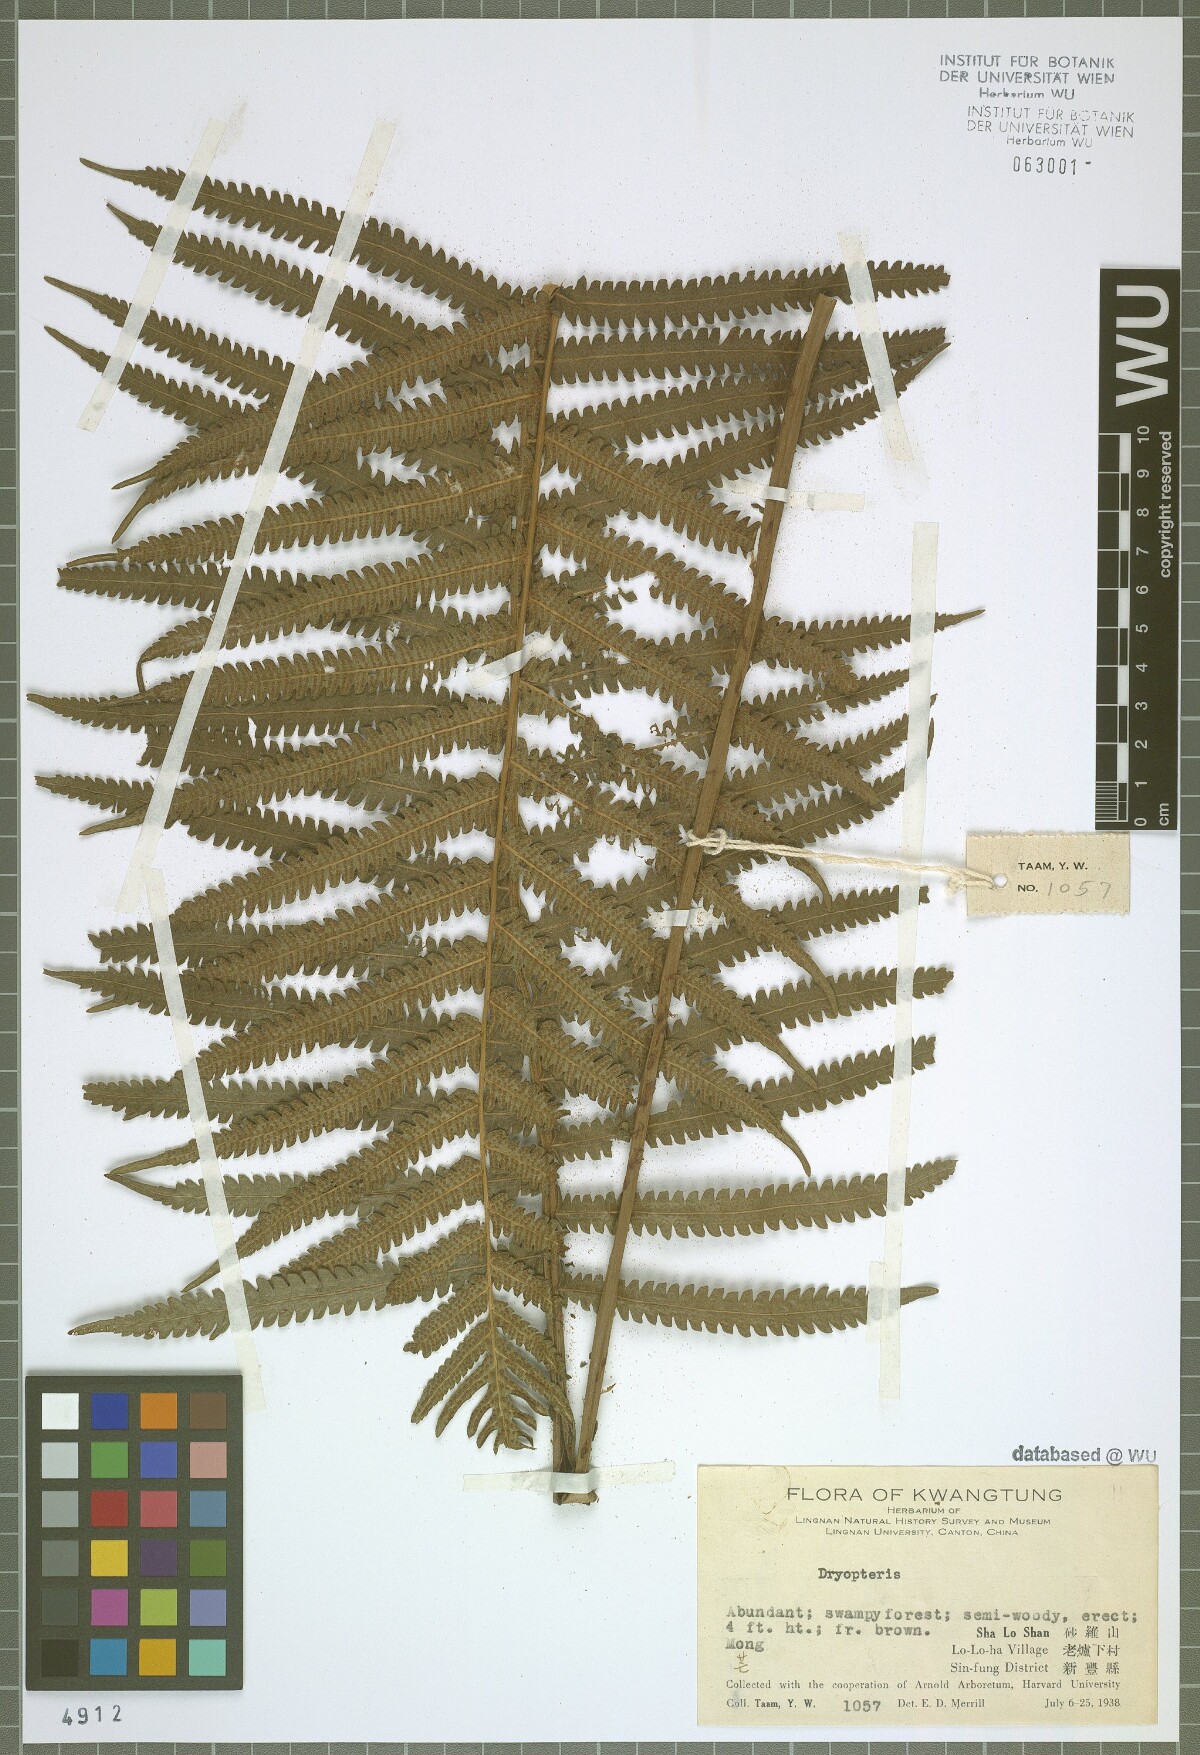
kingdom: Plantae
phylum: Tracheophyta
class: Polypodiopsida
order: Polypodiales
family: Dryopteridaceae
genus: Dryopteris
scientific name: Dryopteris
